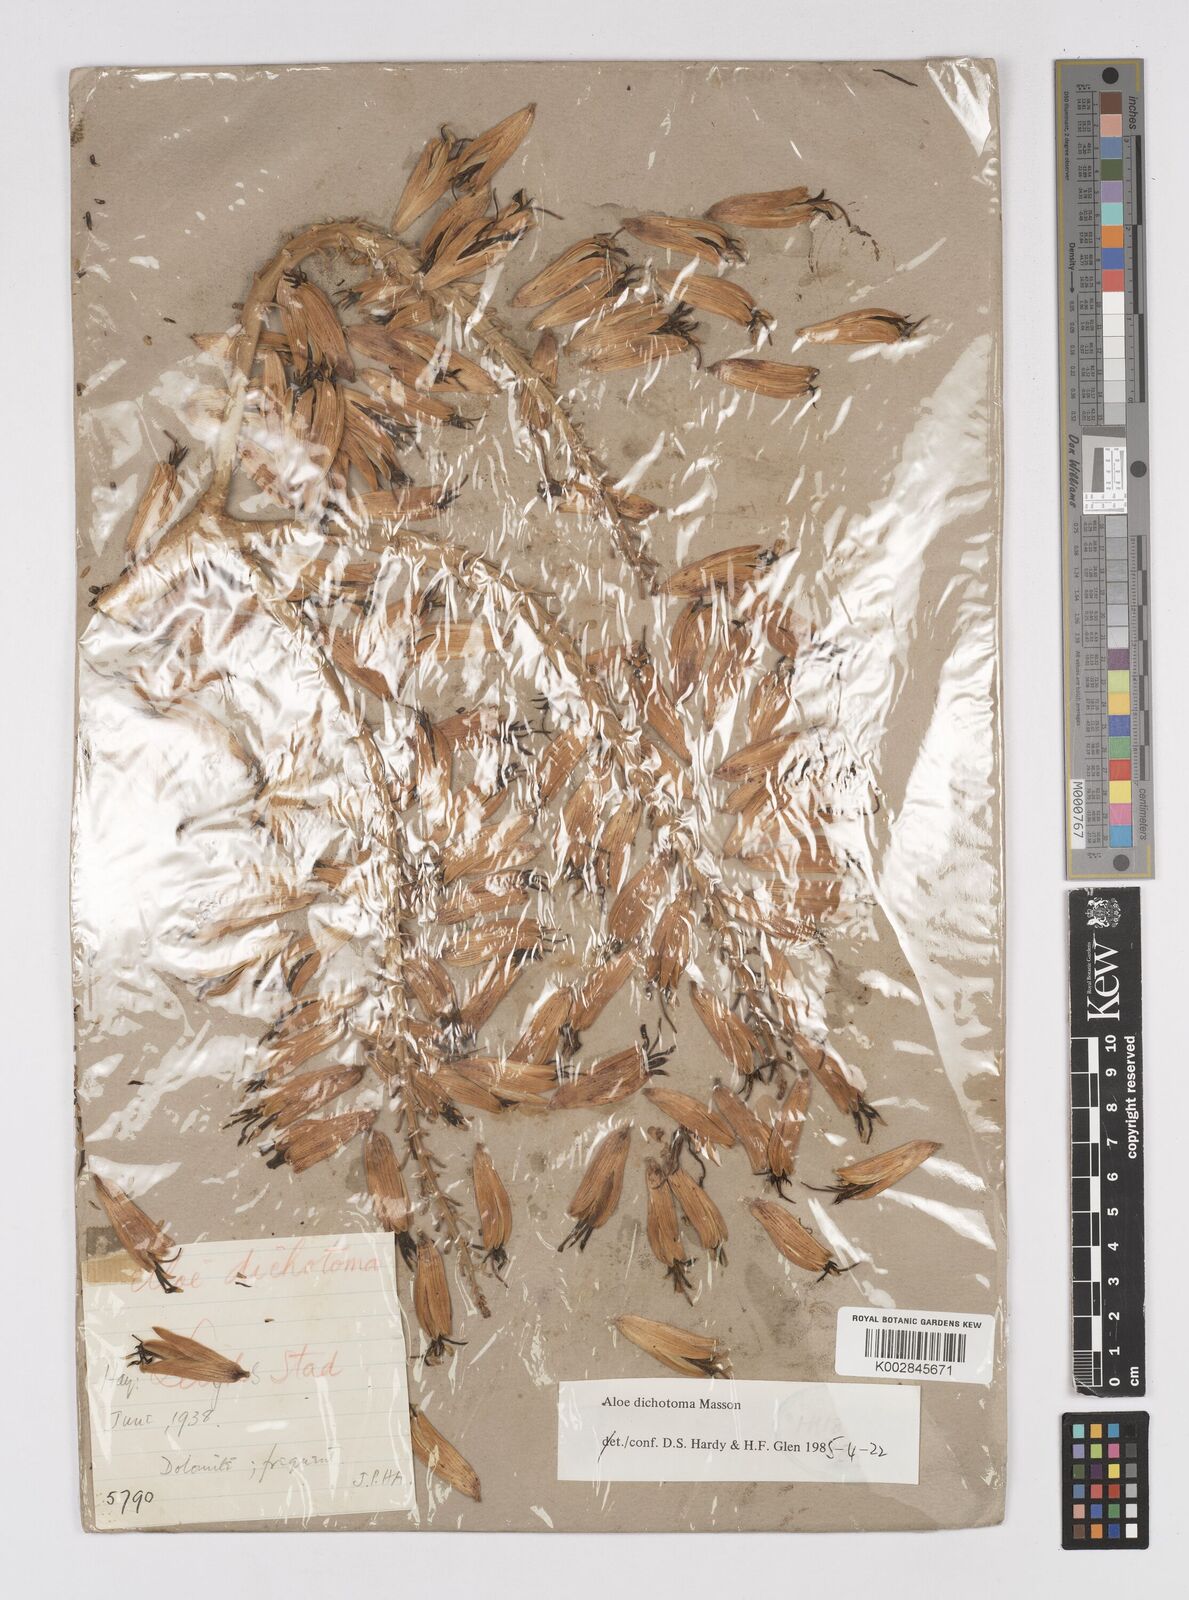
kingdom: Plantae
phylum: Tracheophyta
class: Liliopsida
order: Asparagales
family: Asphodelaceae
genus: Aloidendron
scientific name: Aloidendron dichotomum
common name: Quiver tree
